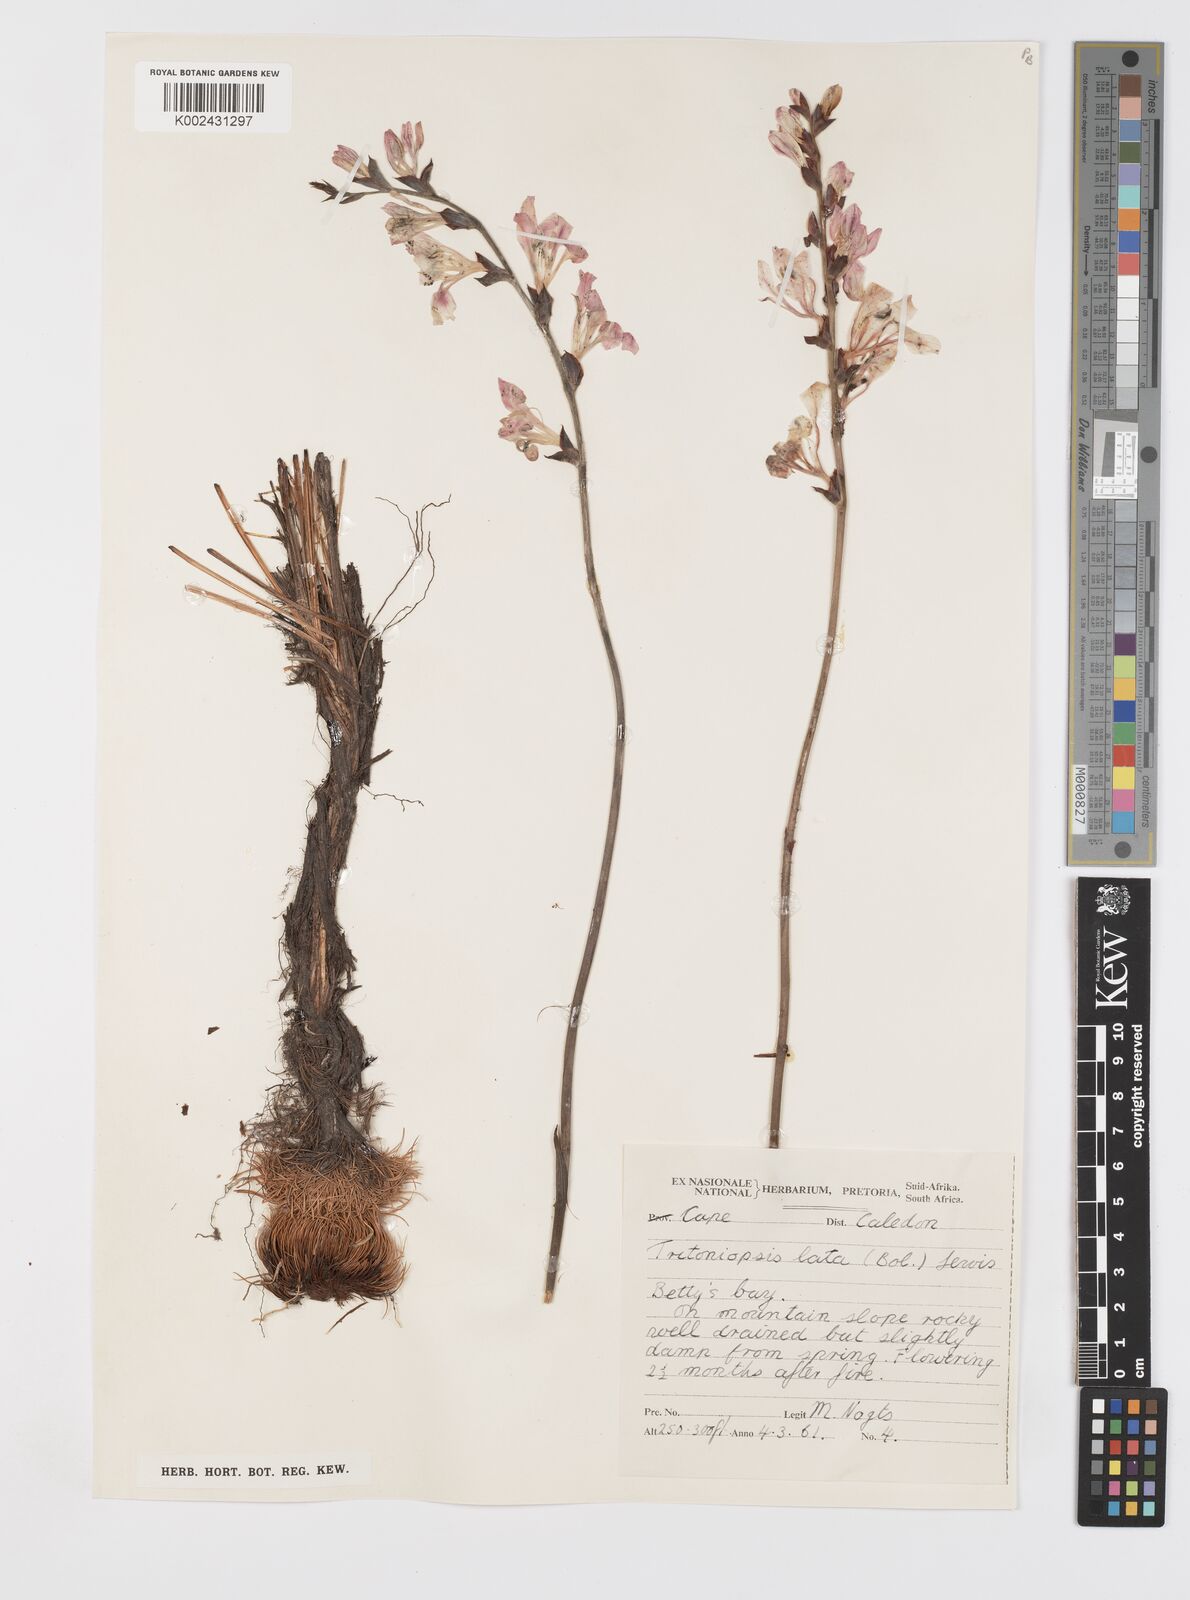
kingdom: Plantae
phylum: Tracheophyta
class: Liliopsida
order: Asparagales
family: Iridaceae
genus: Tritoniopsis
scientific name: Tritoniopsis lata
